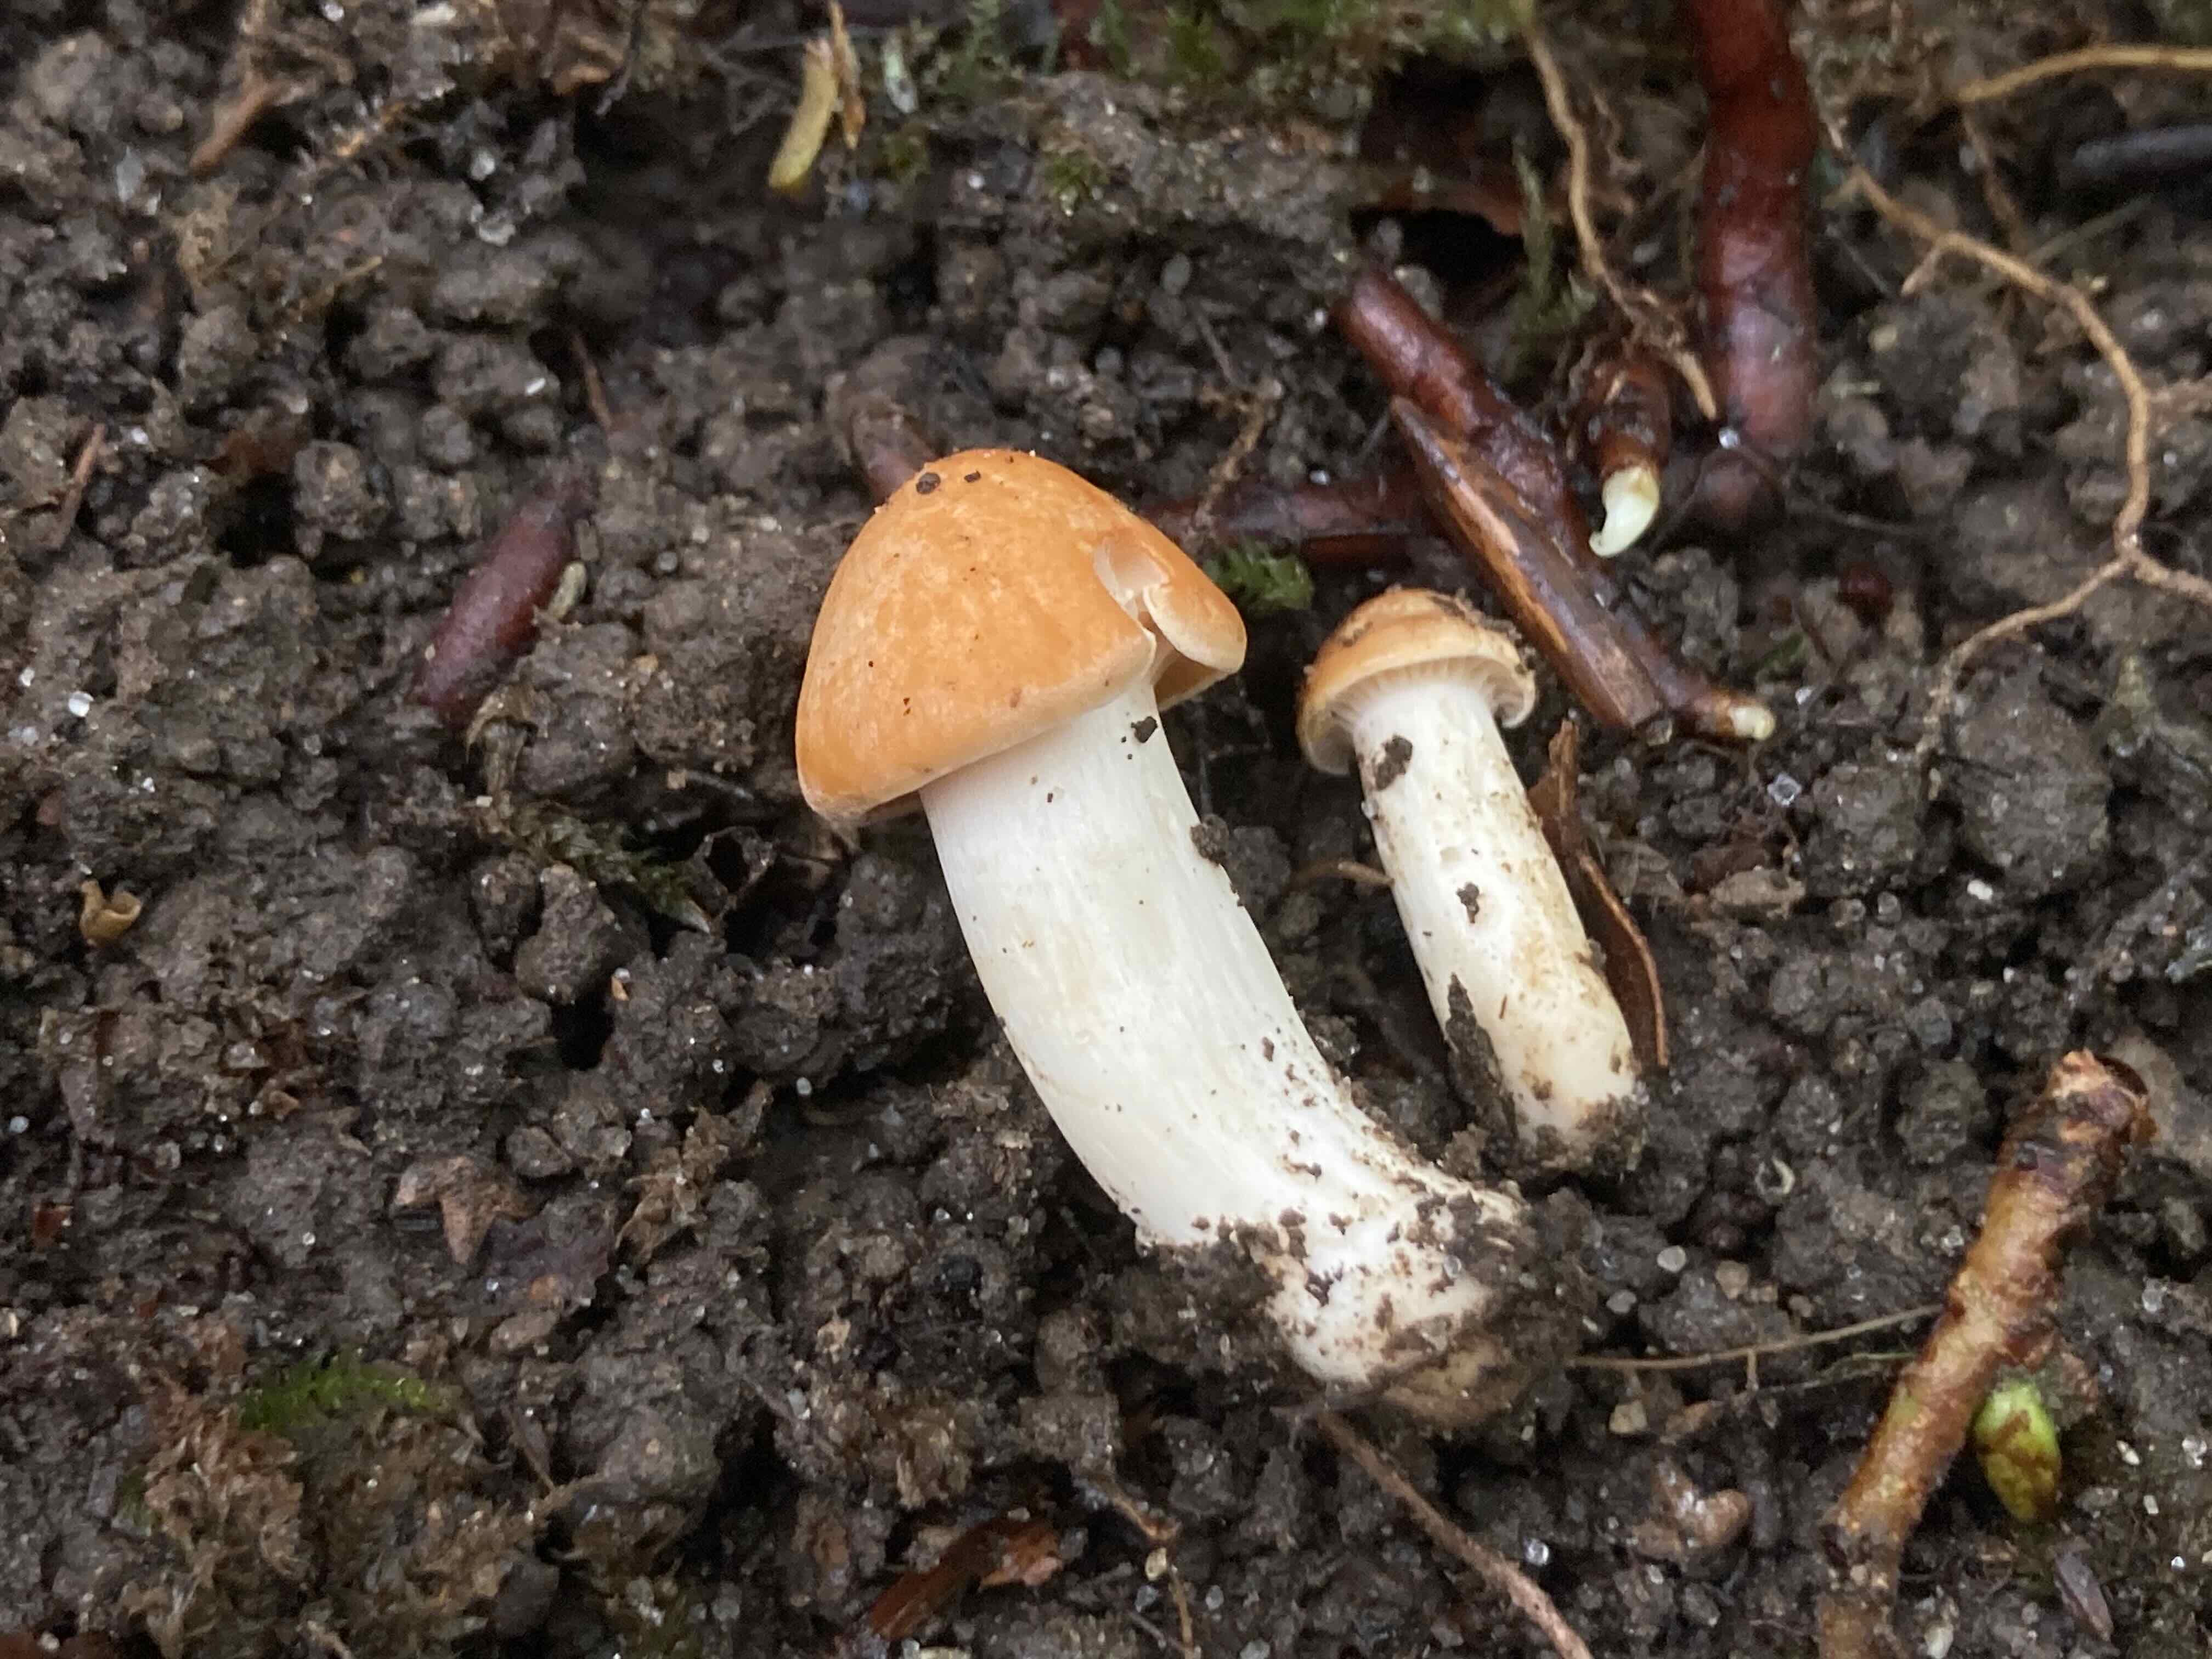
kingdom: Fungi
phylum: Basidiomycota
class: Agaricomycetes
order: Agaricales
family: Hygrophoraceae
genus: Cuphophyllus
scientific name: Cuphophyllus pratensis
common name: eng-vokshat
